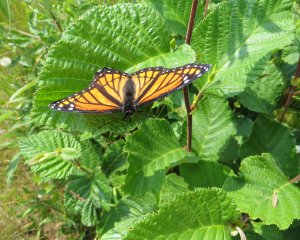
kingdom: Animalia
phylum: Arthropoda
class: Insecta
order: Lepidoptera
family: Nymphalidae
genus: Limenitis
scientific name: Limenitis archippus
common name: Viceroy
